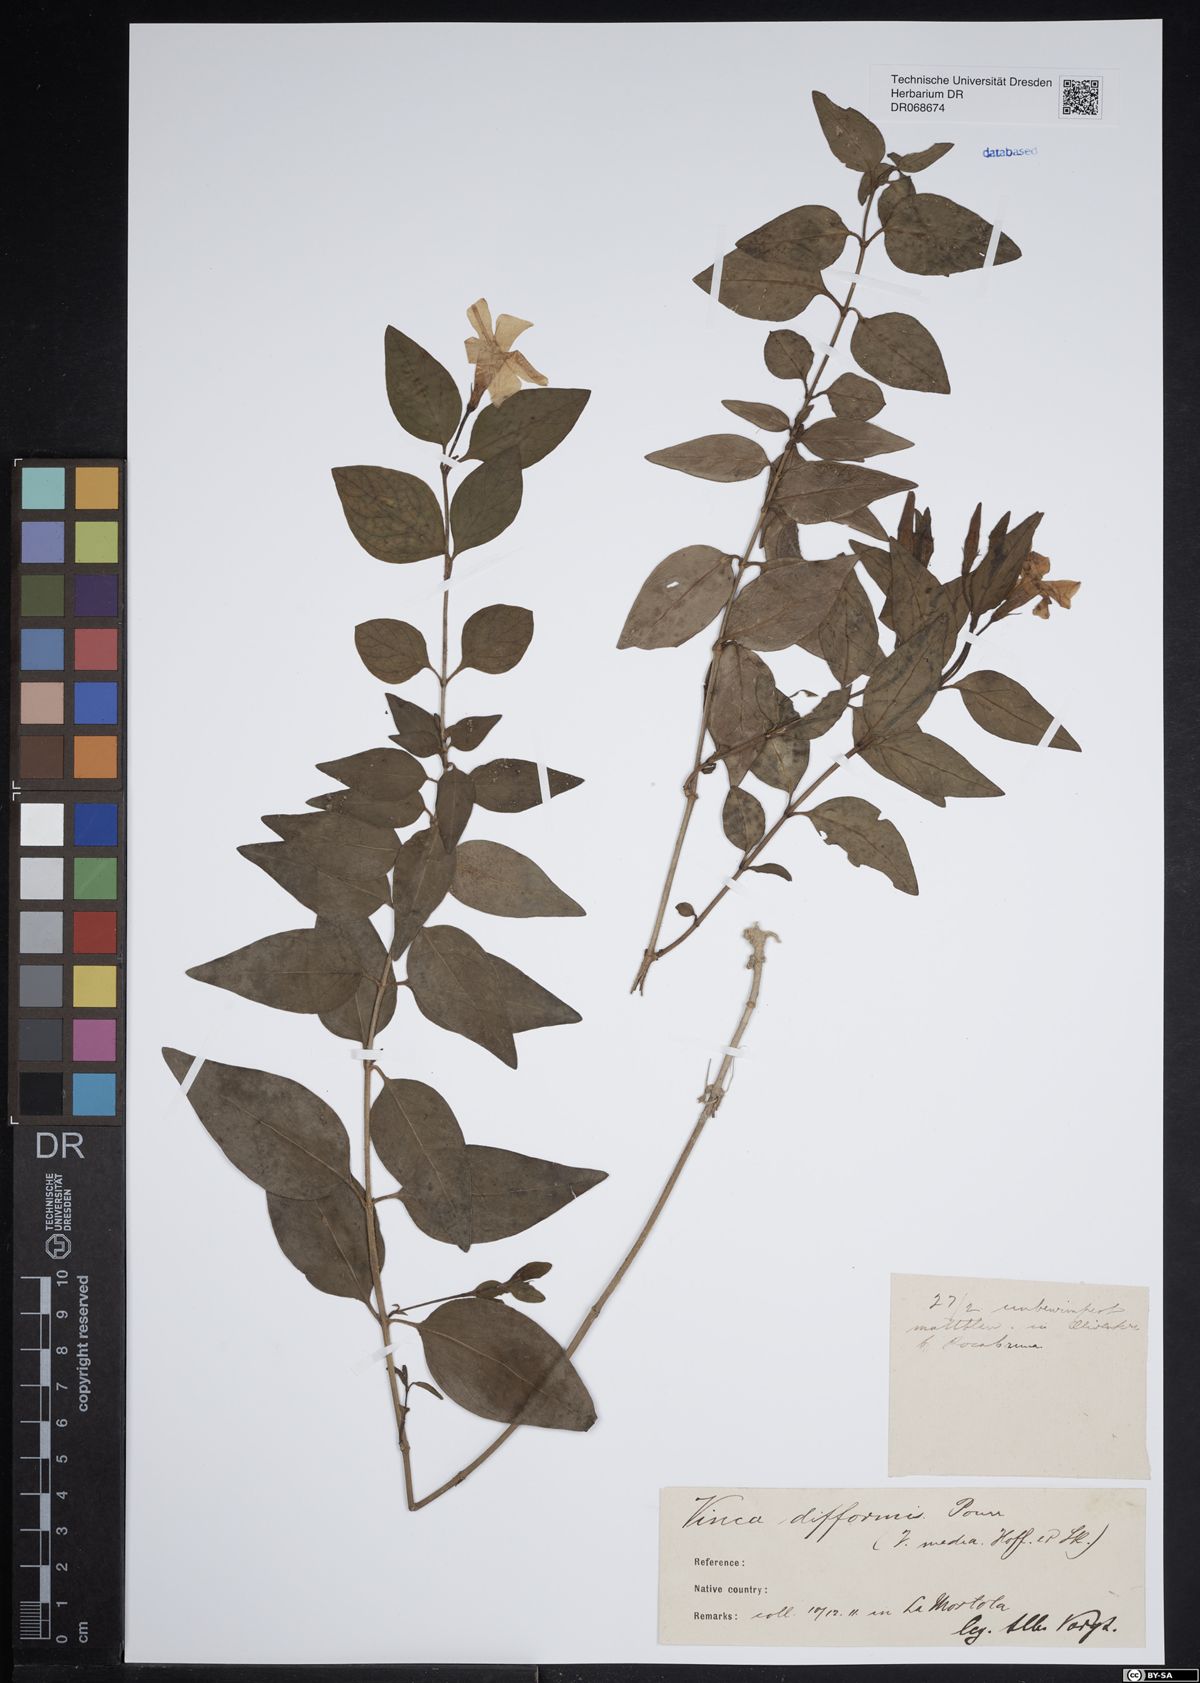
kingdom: Plantae
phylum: Tracheophyta
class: Magnoliopsida
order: Gentianales
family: Apocynaceae
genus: Vinca
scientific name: Vinca difformis
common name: Intermediate periwinkle
